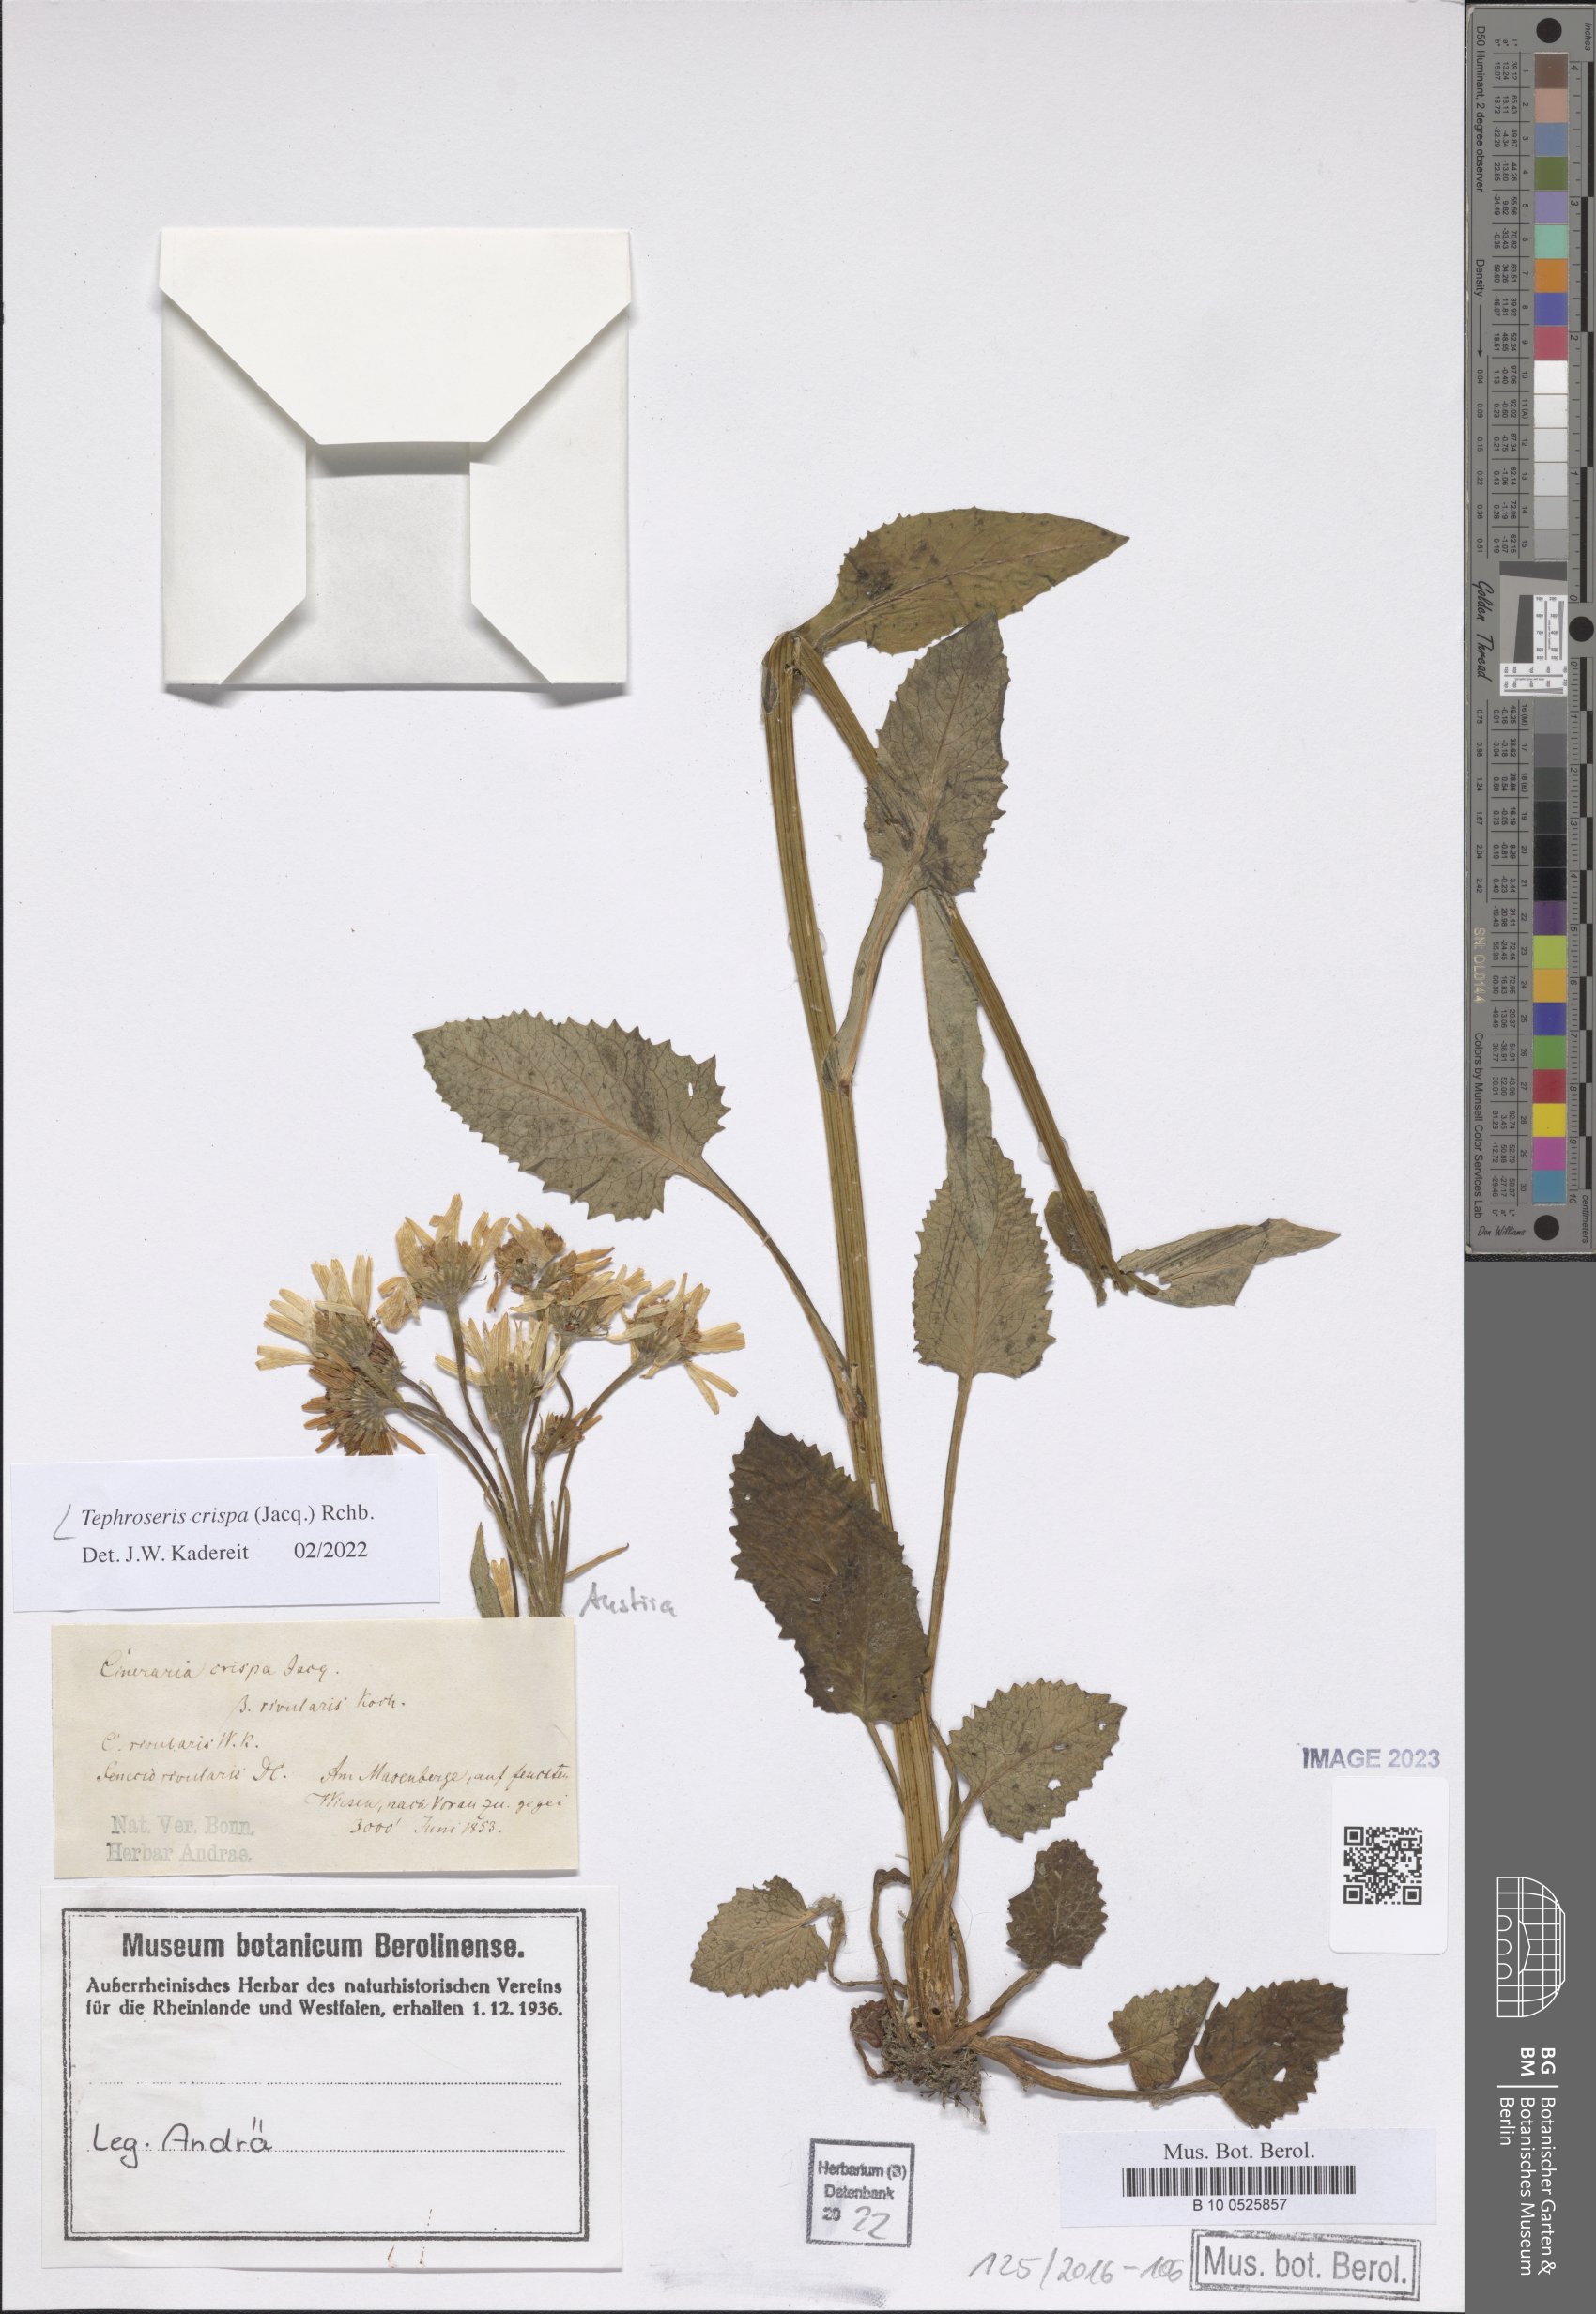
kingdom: Plantae
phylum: Tracheophyta
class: Magnoliopsida
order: Asterales
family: Asteraceae
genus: Tephroseris
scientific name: Tephroseris crispa
